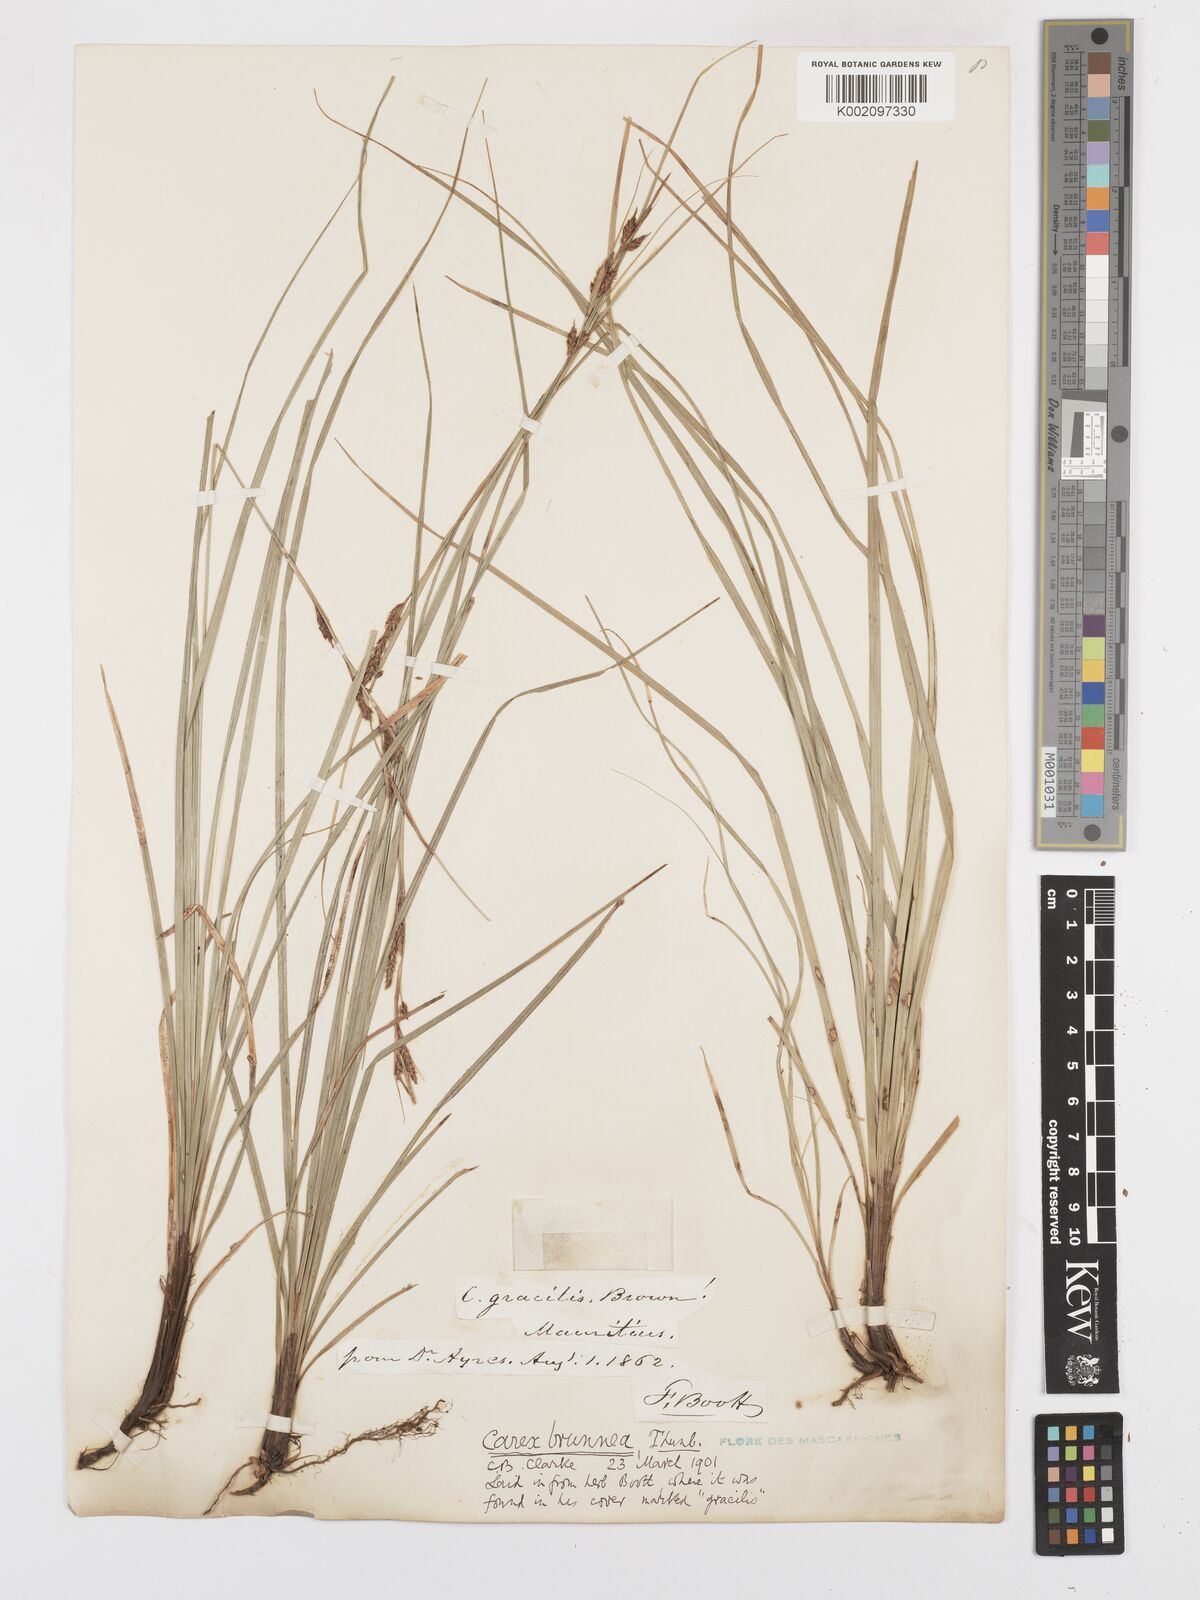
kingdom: Plantae
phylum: Tracheophyta
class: Liliopsida
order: Poales
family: Cyperaceae
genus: Carex
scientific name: Carex brunnea
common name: Greater brown sedge
